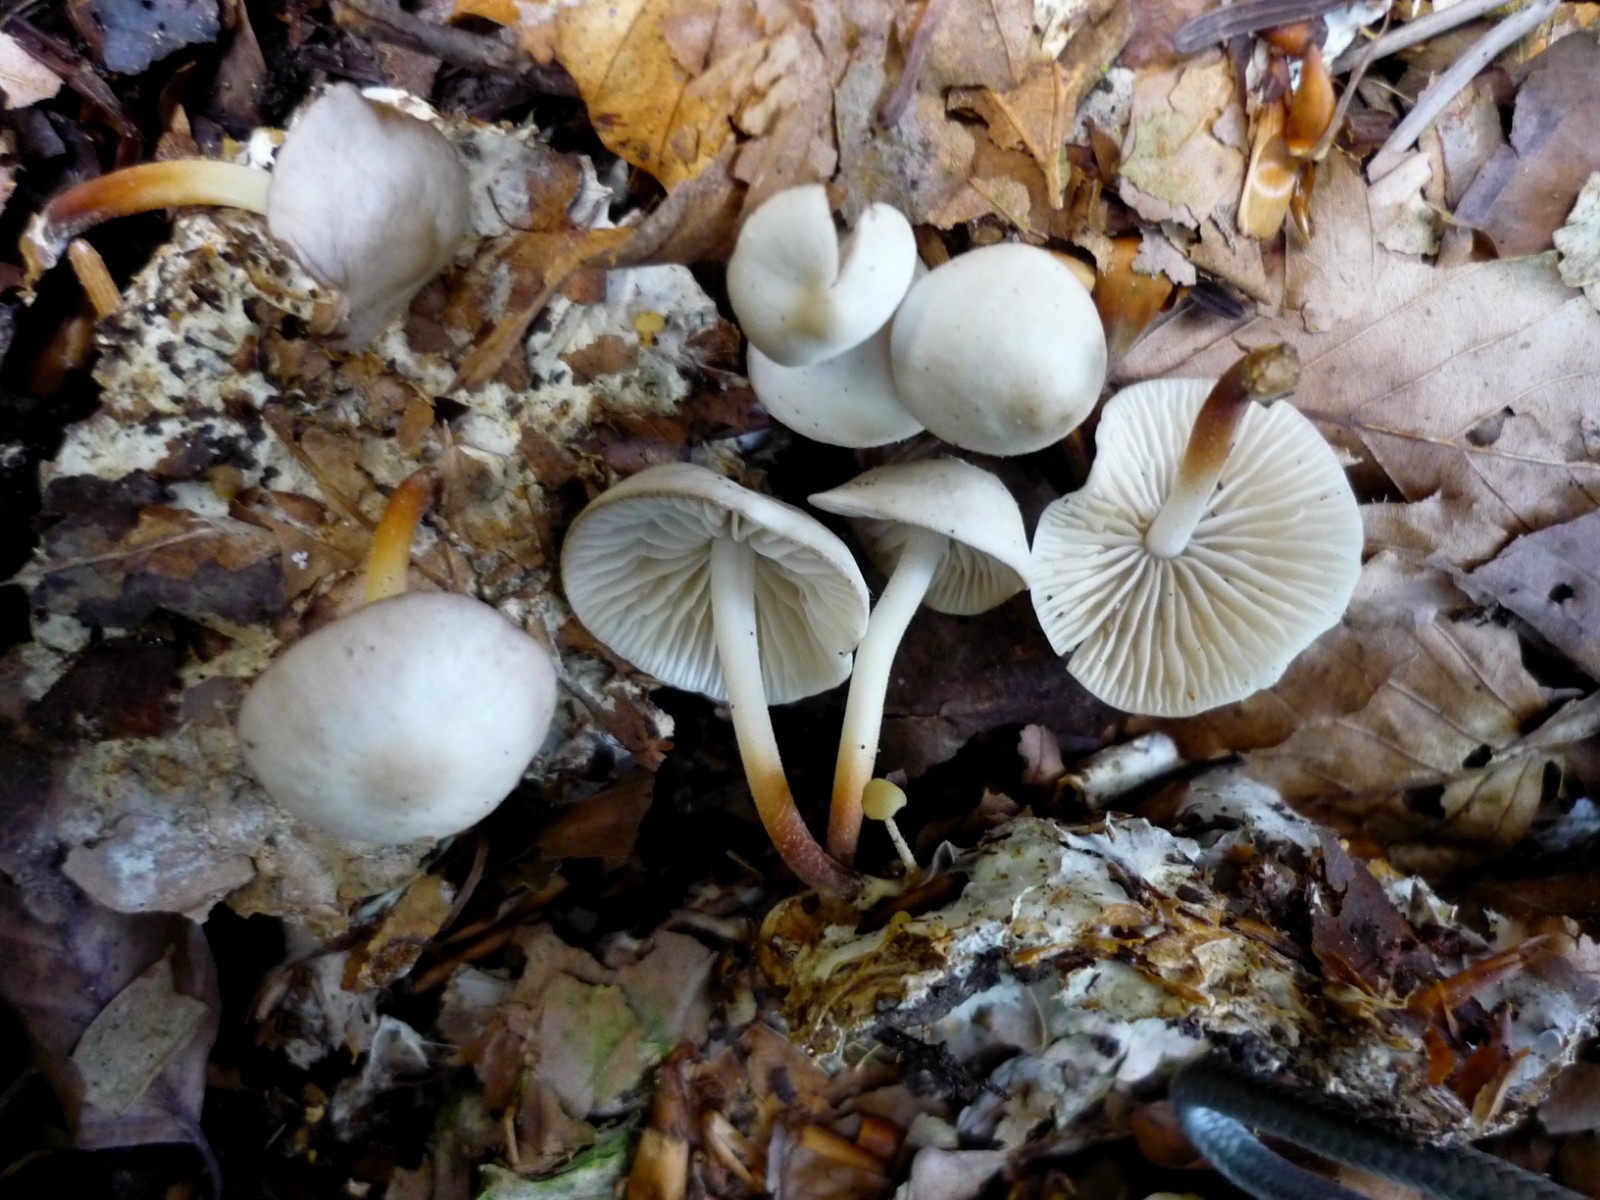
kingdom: Fungi
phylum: Basidiomycota
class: Agaricomycetes
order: Agaricales
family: Marasmiaceae
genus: Marasmius
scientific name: Marasmius wynneae
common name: hvælvet bruskhat
